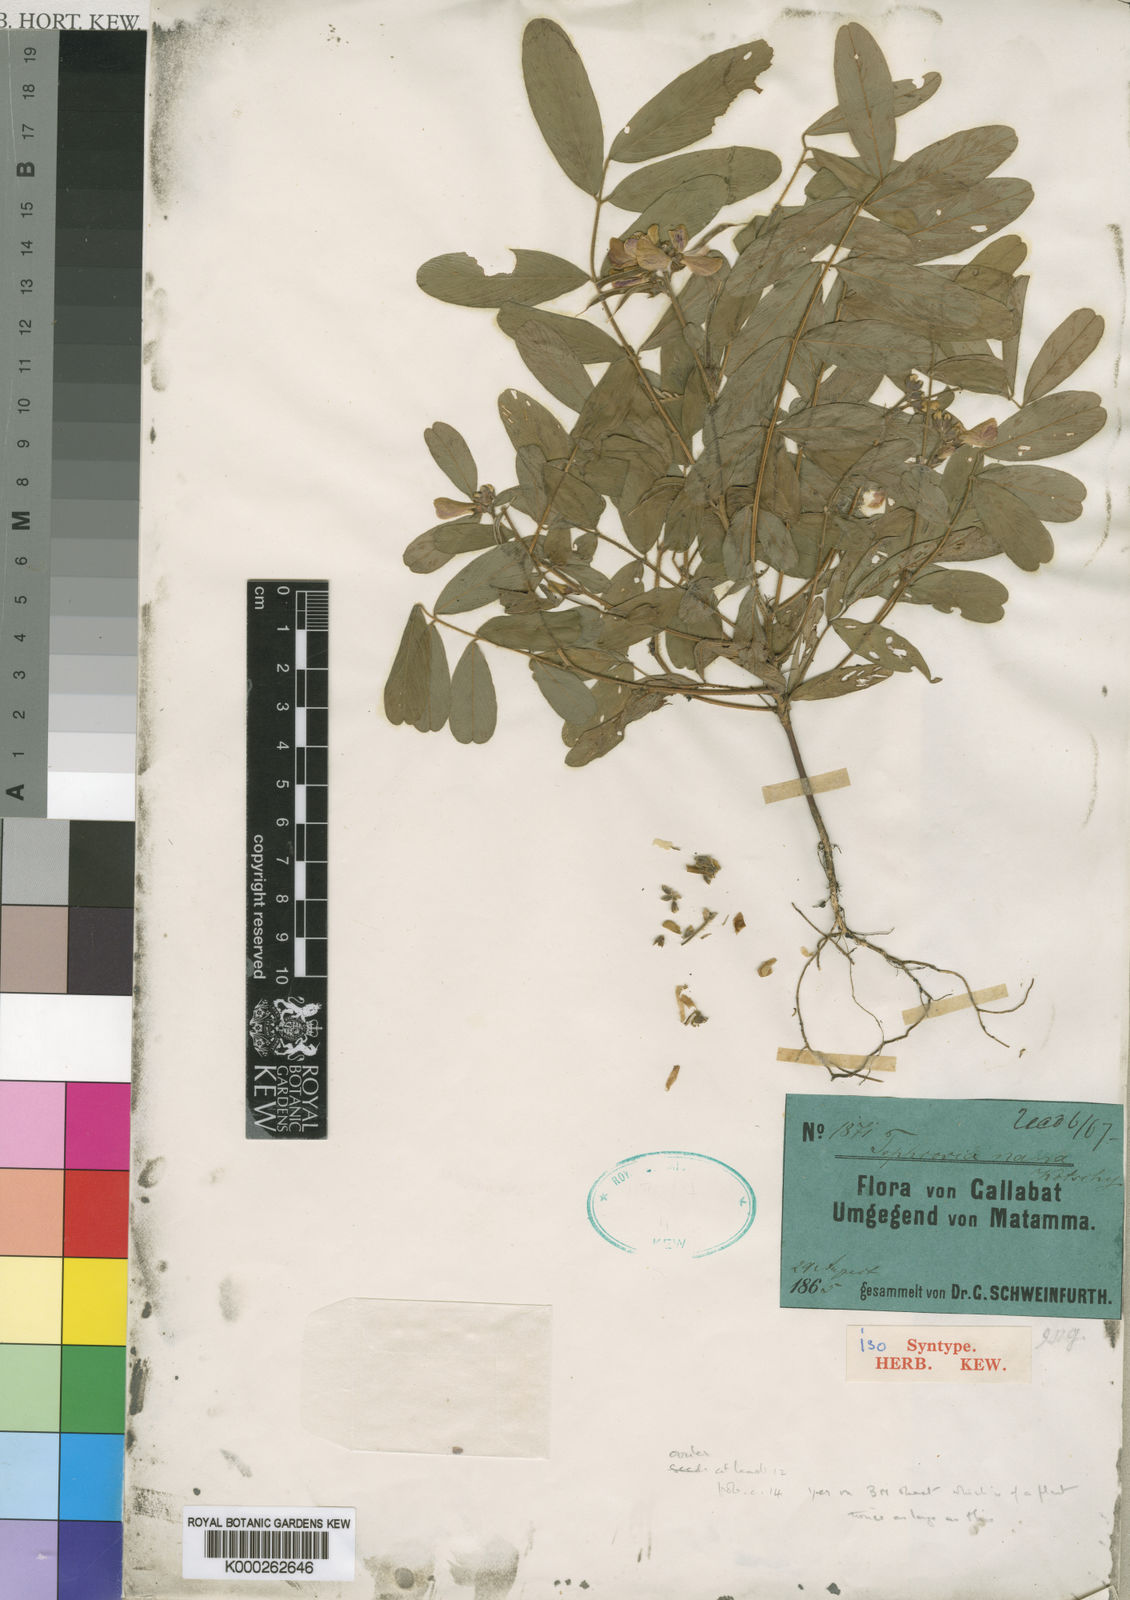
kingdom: Plantae
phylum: Tracheophyta
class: Magnoliopsida
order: Fabales
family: Fabaceae
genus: Tephrosia
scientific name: Tephrosia
